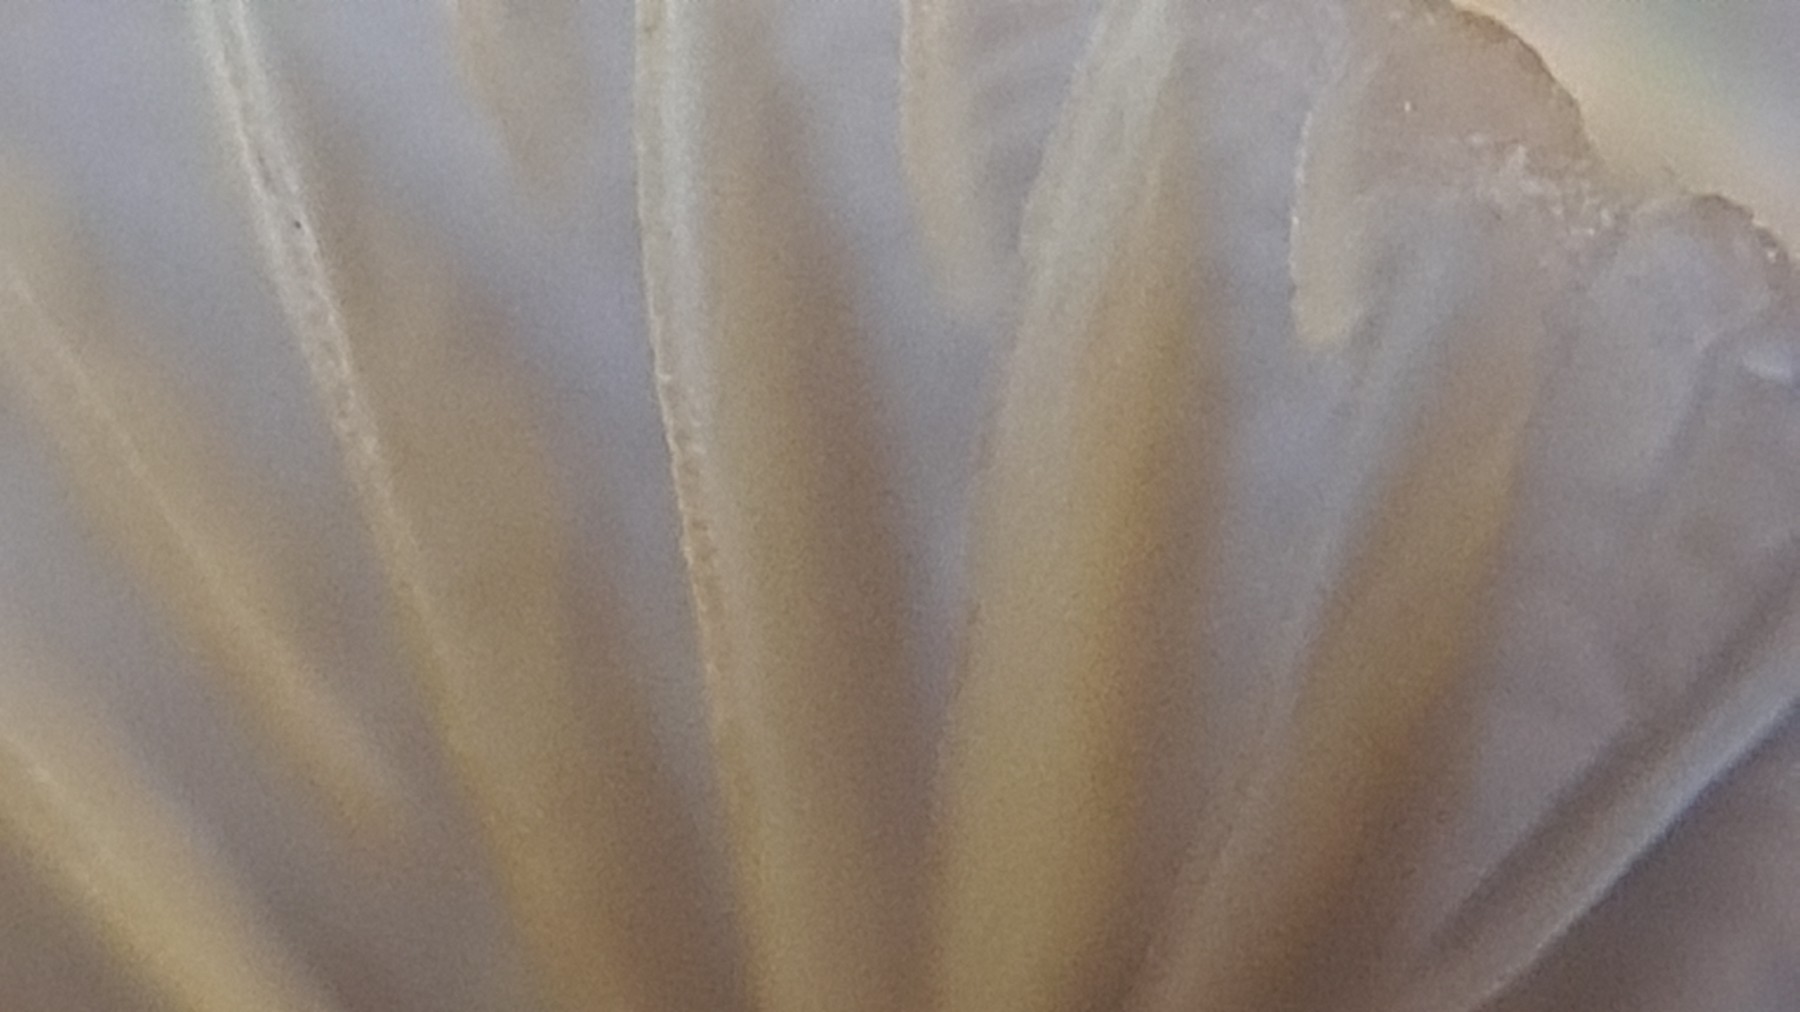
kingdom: Fungi
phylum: Basidiomycota
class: Agaricomycetes
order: Agaricales
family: Mycenaceae
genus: Mycena
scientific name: Mycena olivaceomarginata
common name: brunægget huesvamp
